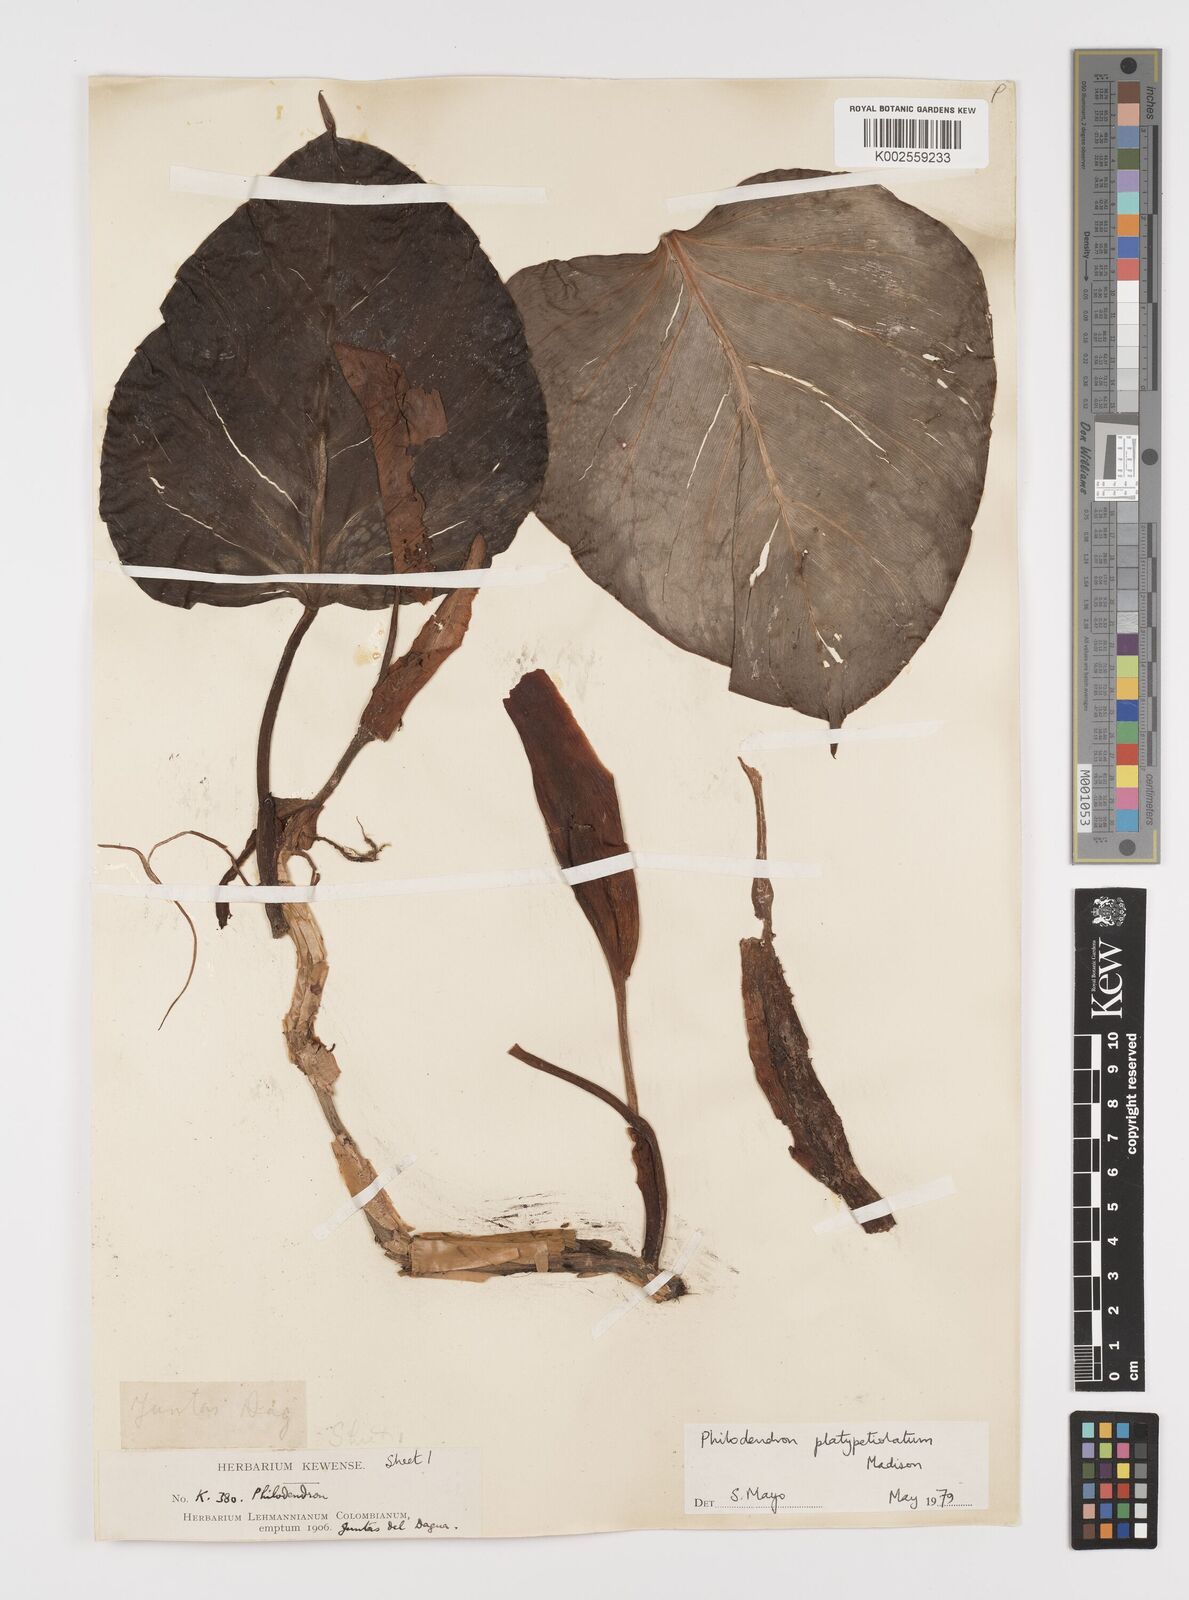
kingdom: Plantae
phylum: Tracheophyta
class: Liliopsida
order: Alismatales
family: Araceae
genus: Philodendron
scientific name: Philodendron platypetiolatum
